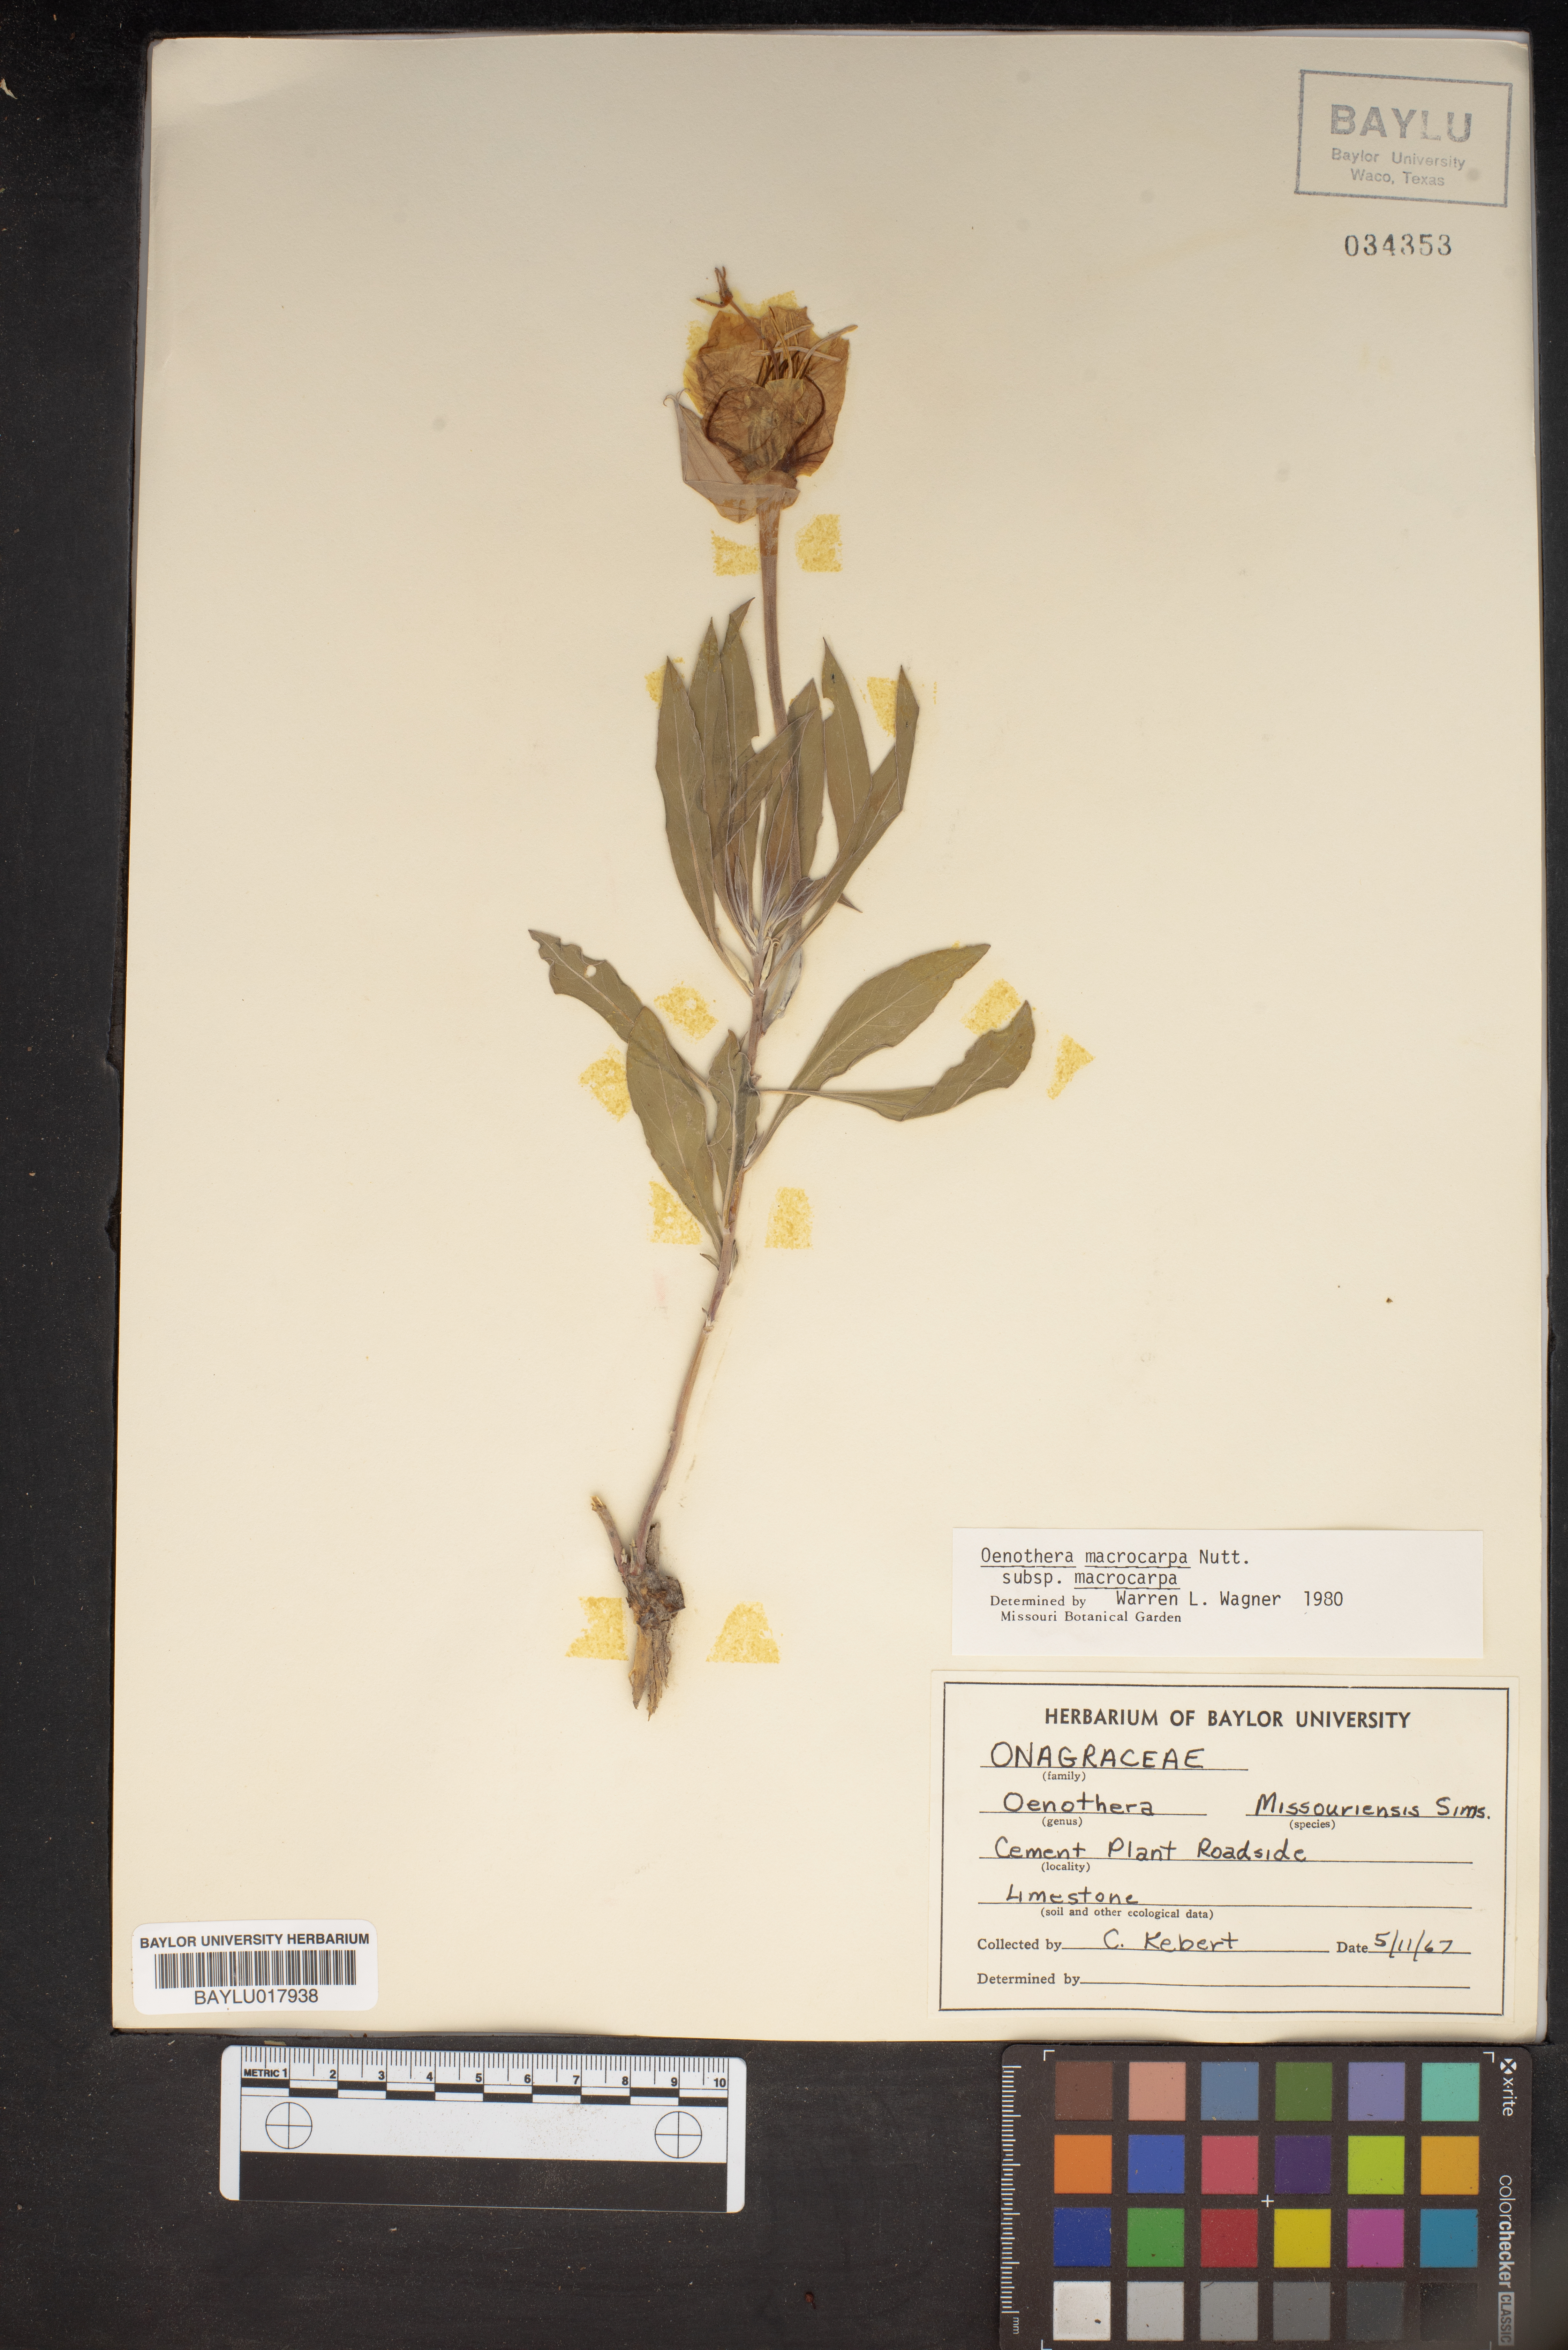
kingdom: Plantae
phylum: Tracheophyta
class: Magnoliopsida
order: Myrtales
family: Onagraceae
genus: Oenothera
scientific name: Oenothera macrocarpa
